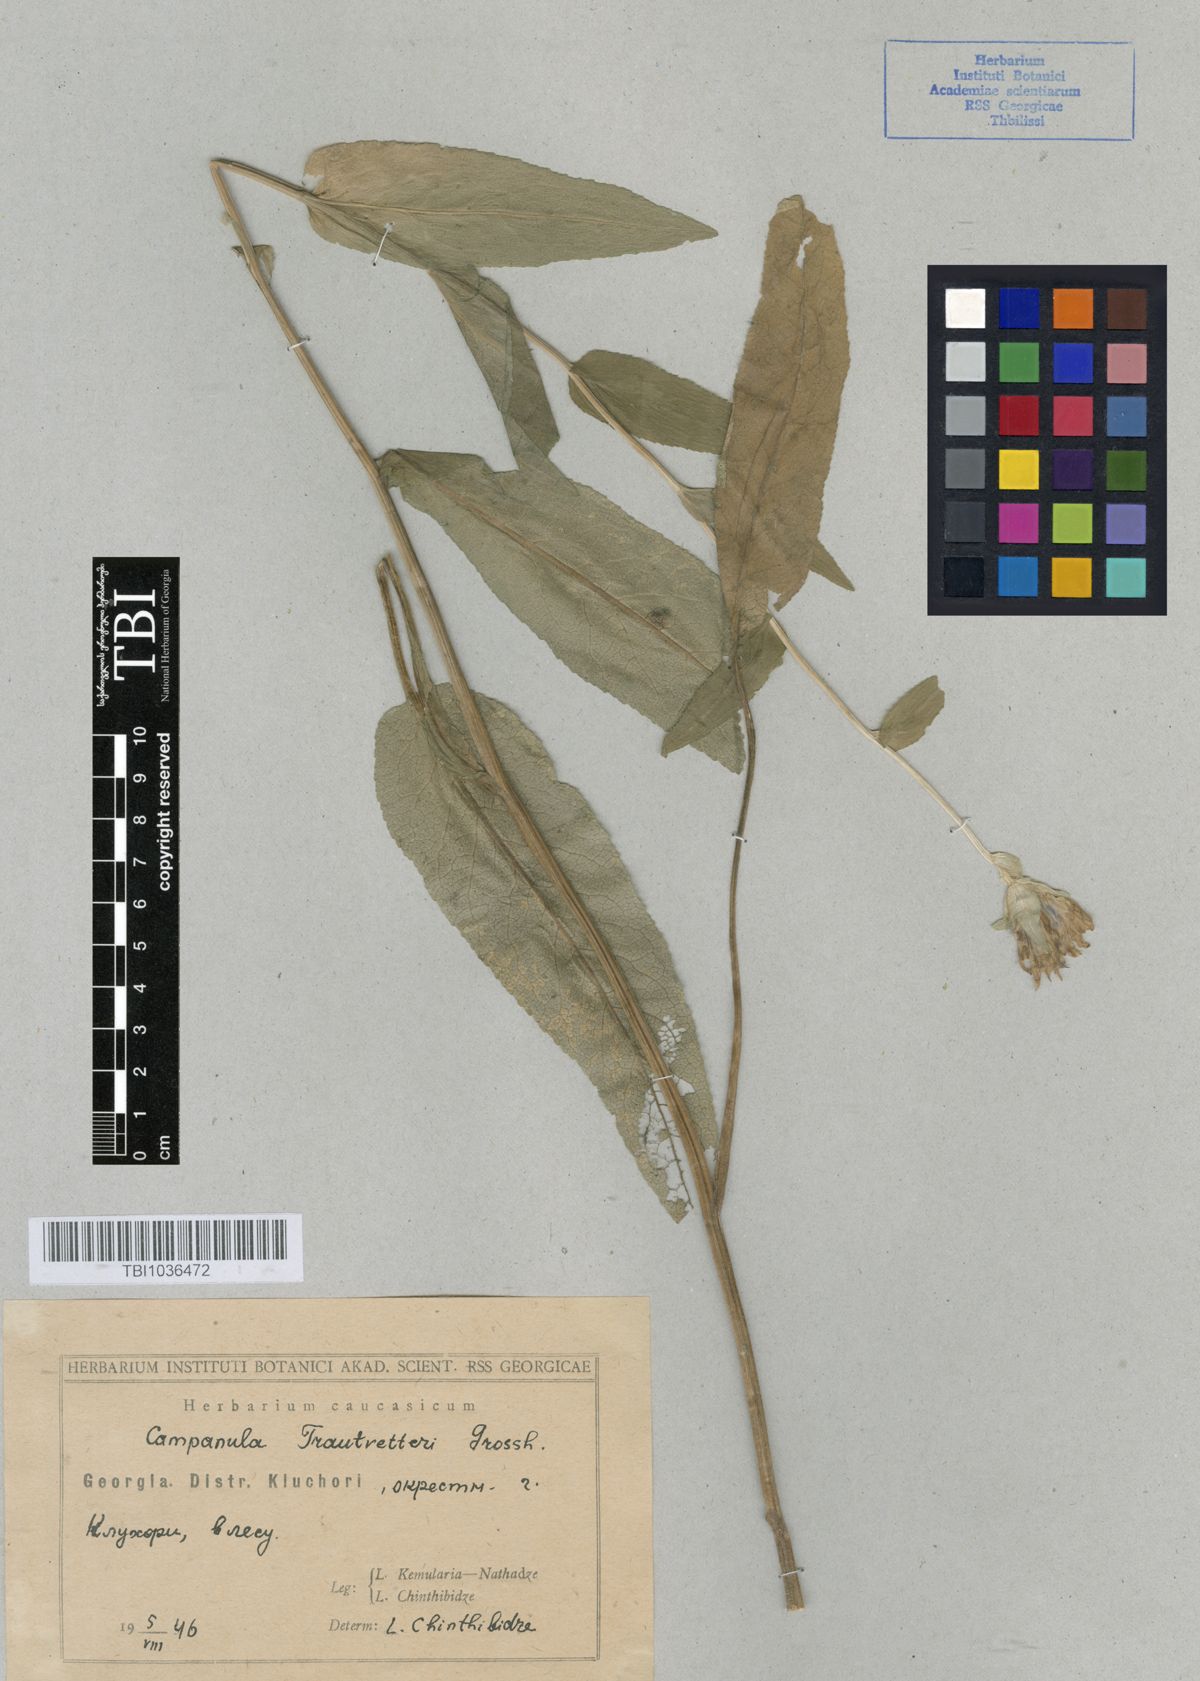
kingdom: Plantae
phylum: Tracheophyta
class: Magnoliopsida
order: Asterales
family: Campanulaceae
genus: Campanula
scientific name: Campanula glomerata
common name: Clustered bellflower
